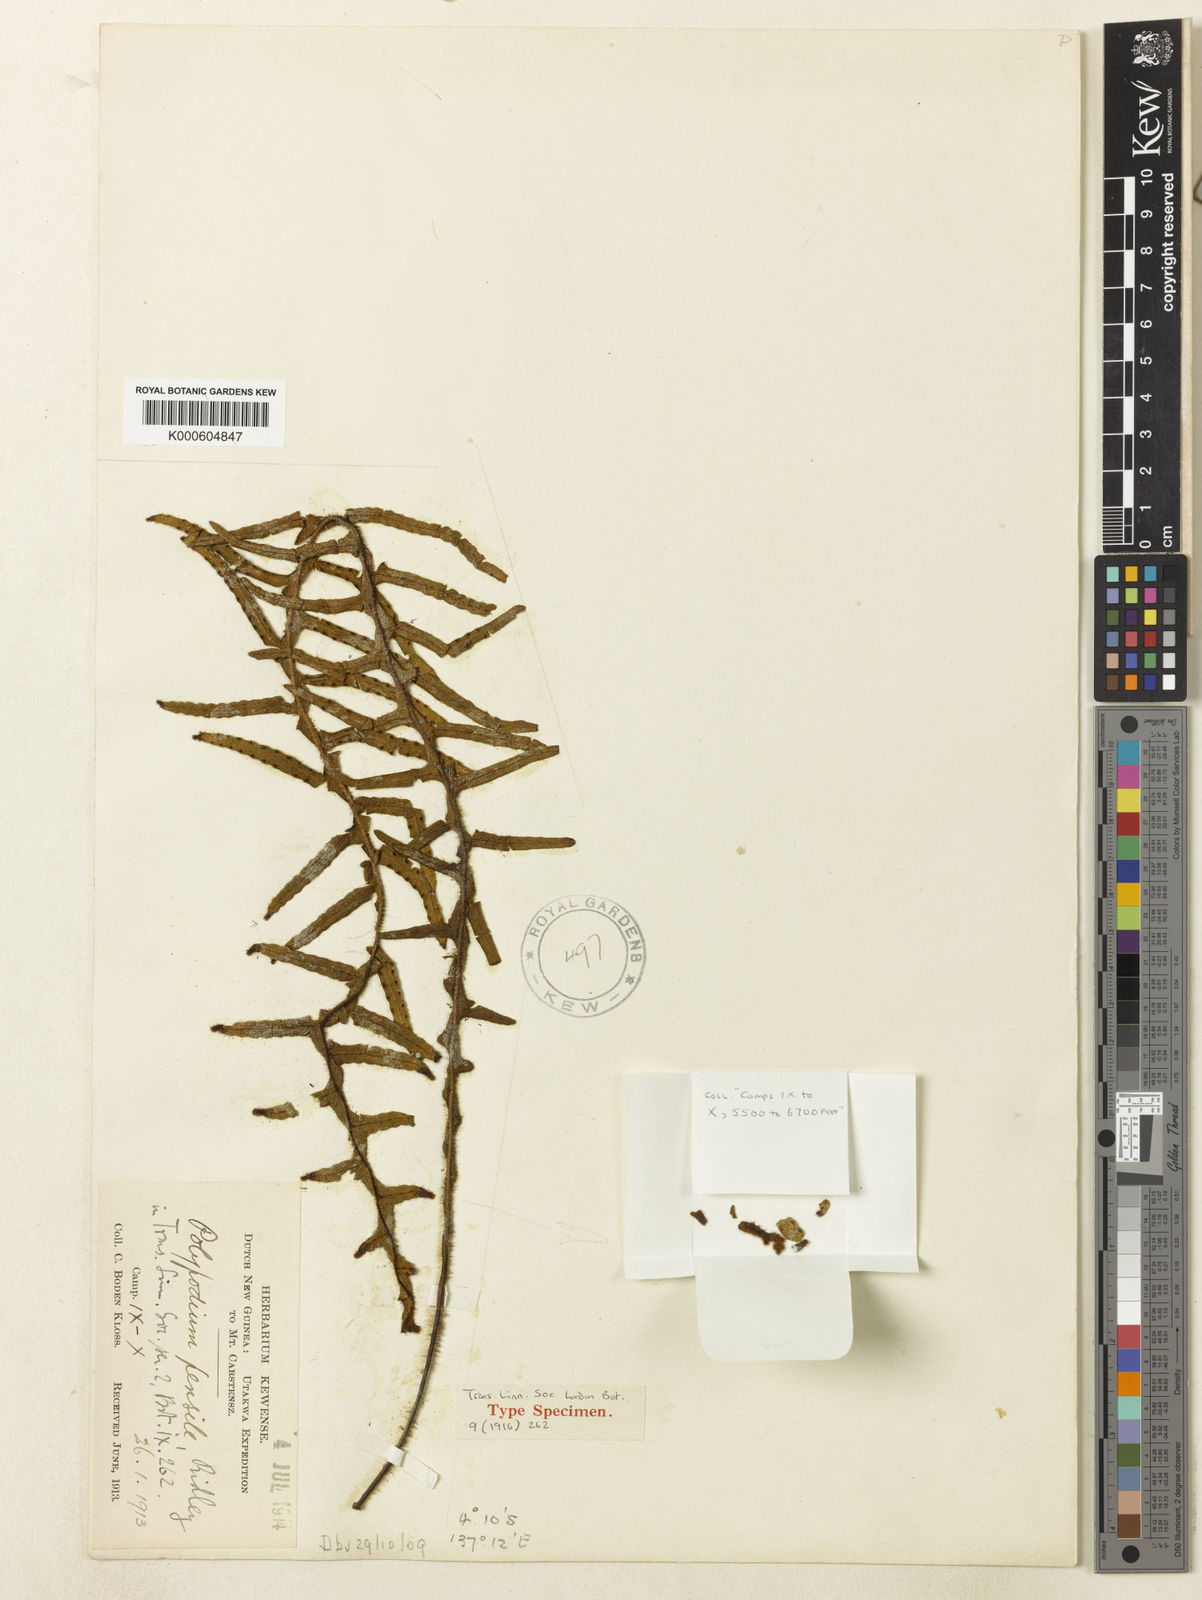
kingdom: Plantae
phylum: Tracheophyta
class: Polypodiopsida
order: Polypodiales
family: Polypodiaceae
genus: Prosaptia
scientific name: Prosaptia pensilis
